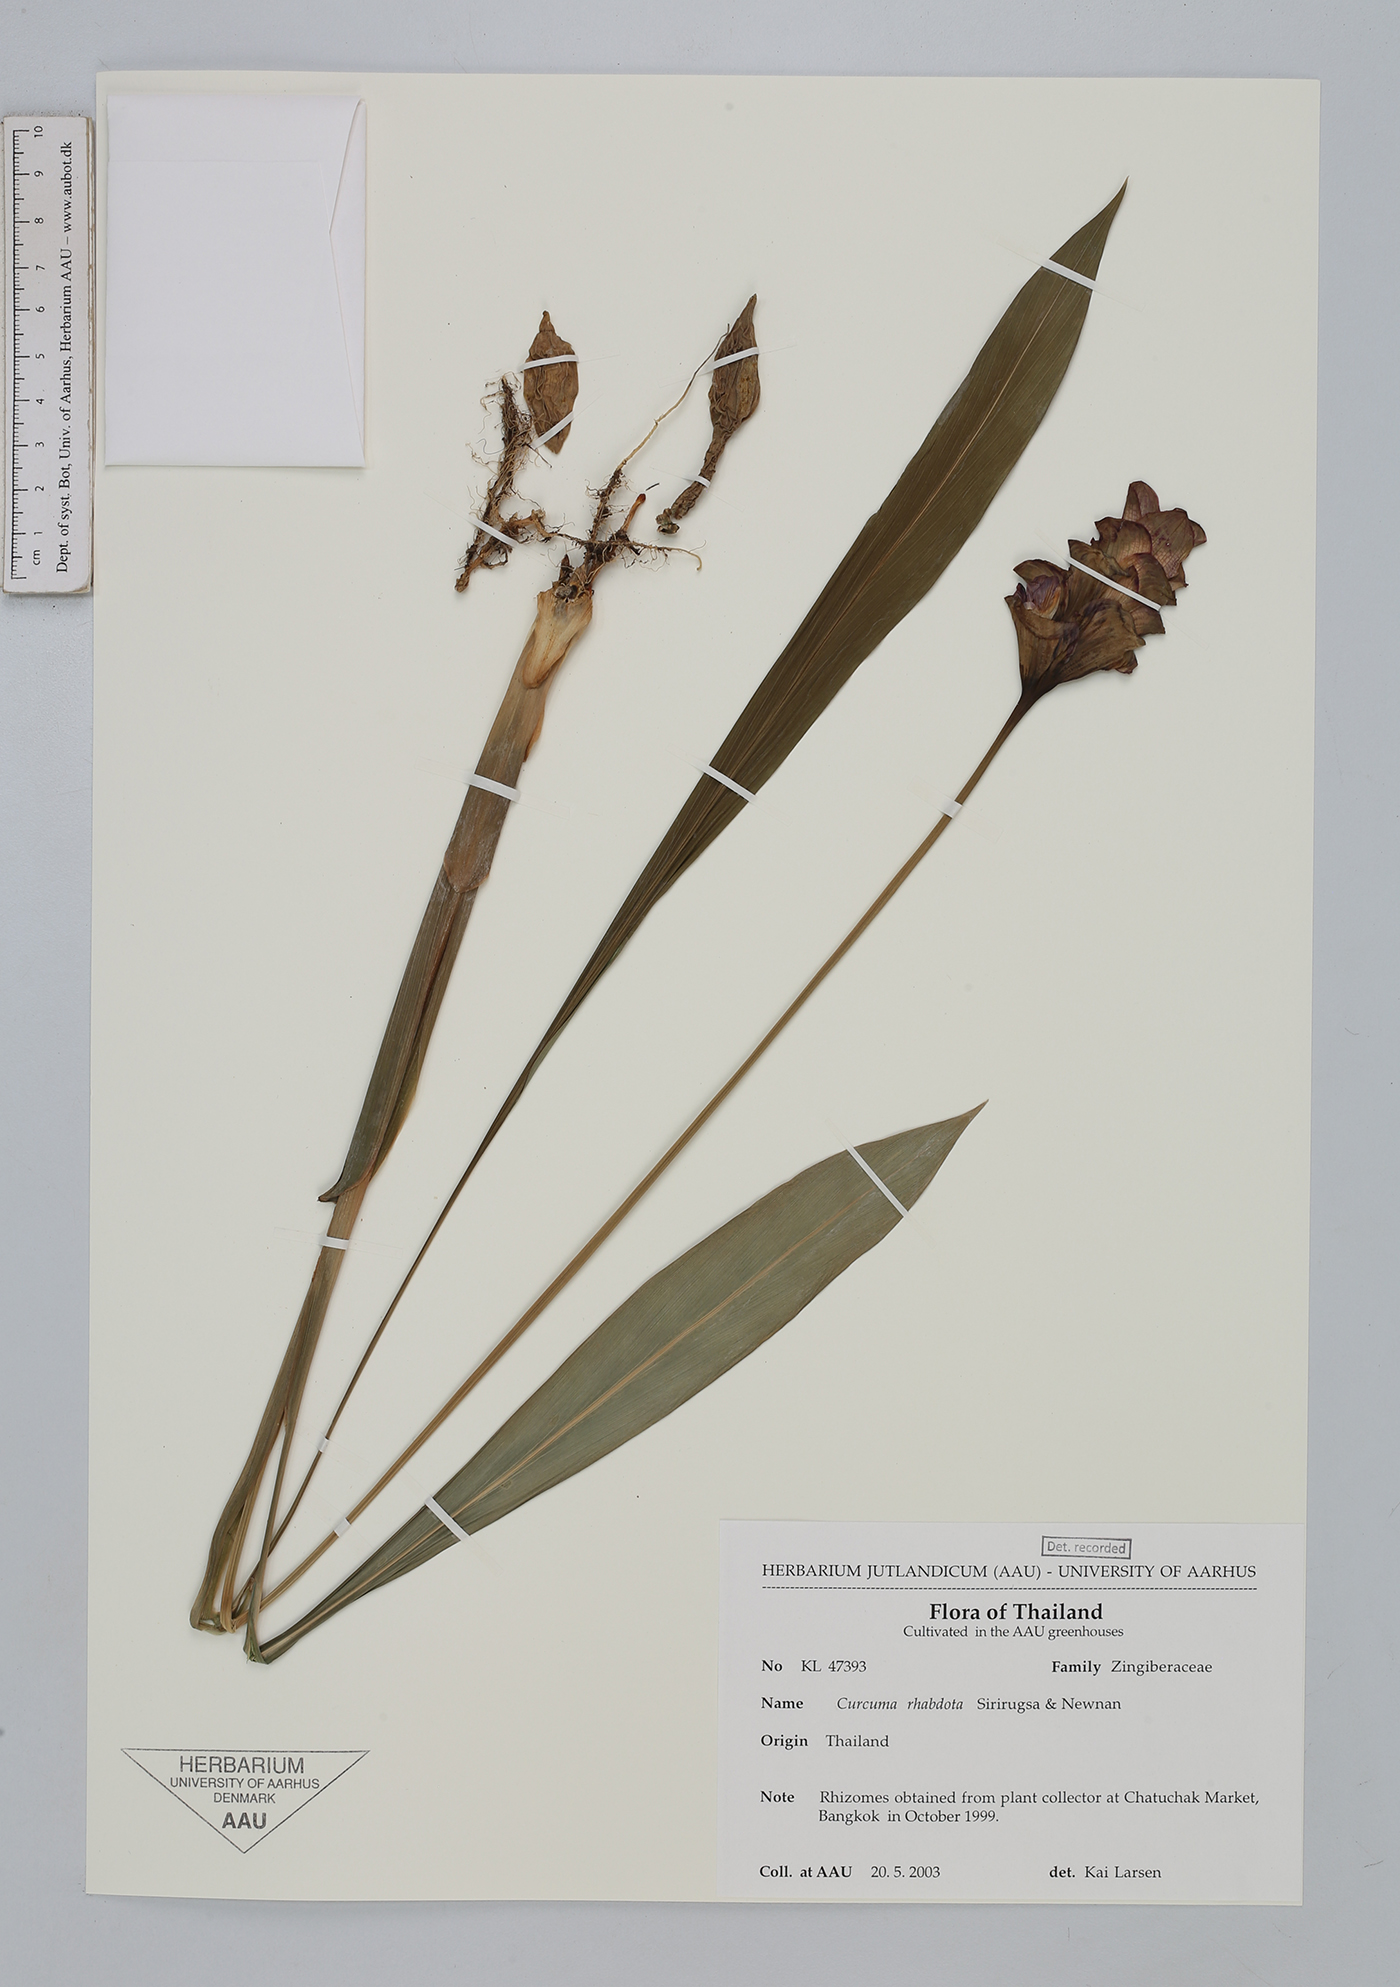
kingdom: Plantae
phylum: Tracheophyta
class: Liliopsida
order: Zingiberales
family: Zingiberaceae
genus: Curcuma
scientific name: Curcuma rhabdota
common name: Candy cane
